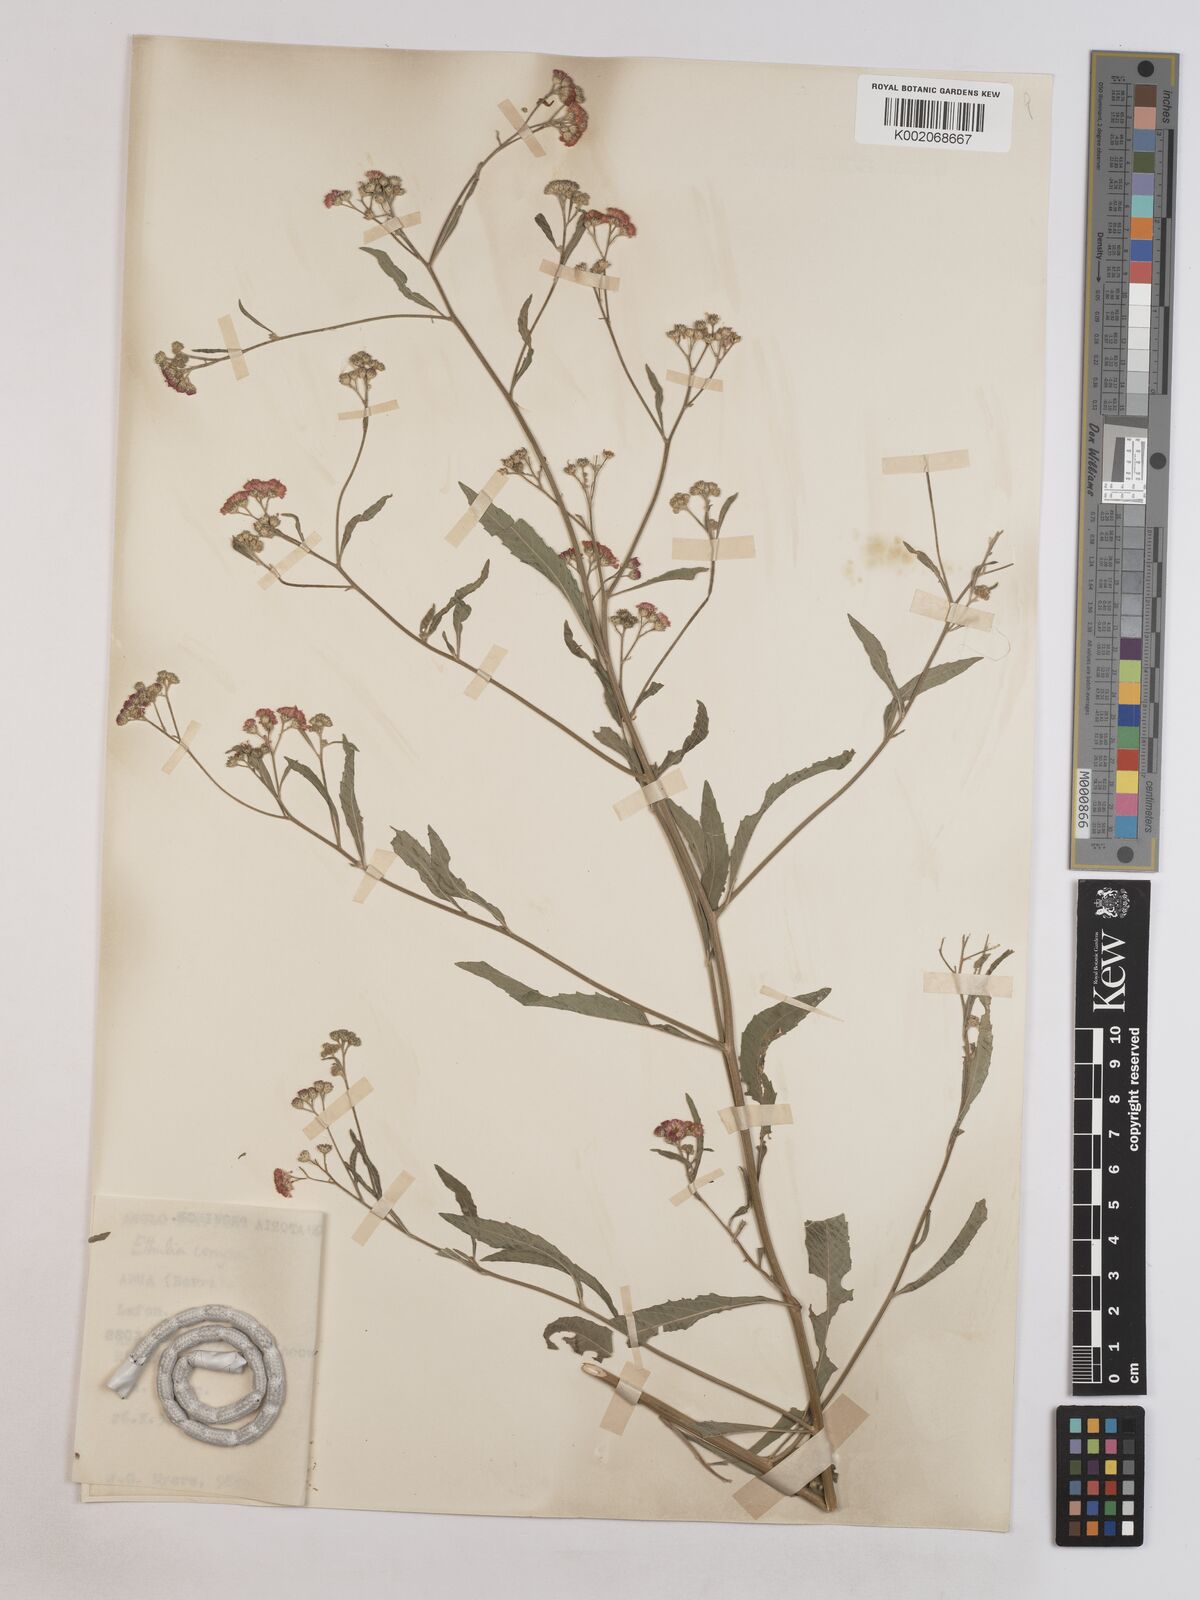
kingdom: Plantae
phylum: Tracheophyta
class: Magnoliopsida
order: Asterales
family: Asteraceae
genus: Ethulia
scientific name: Ethulia gracilis
